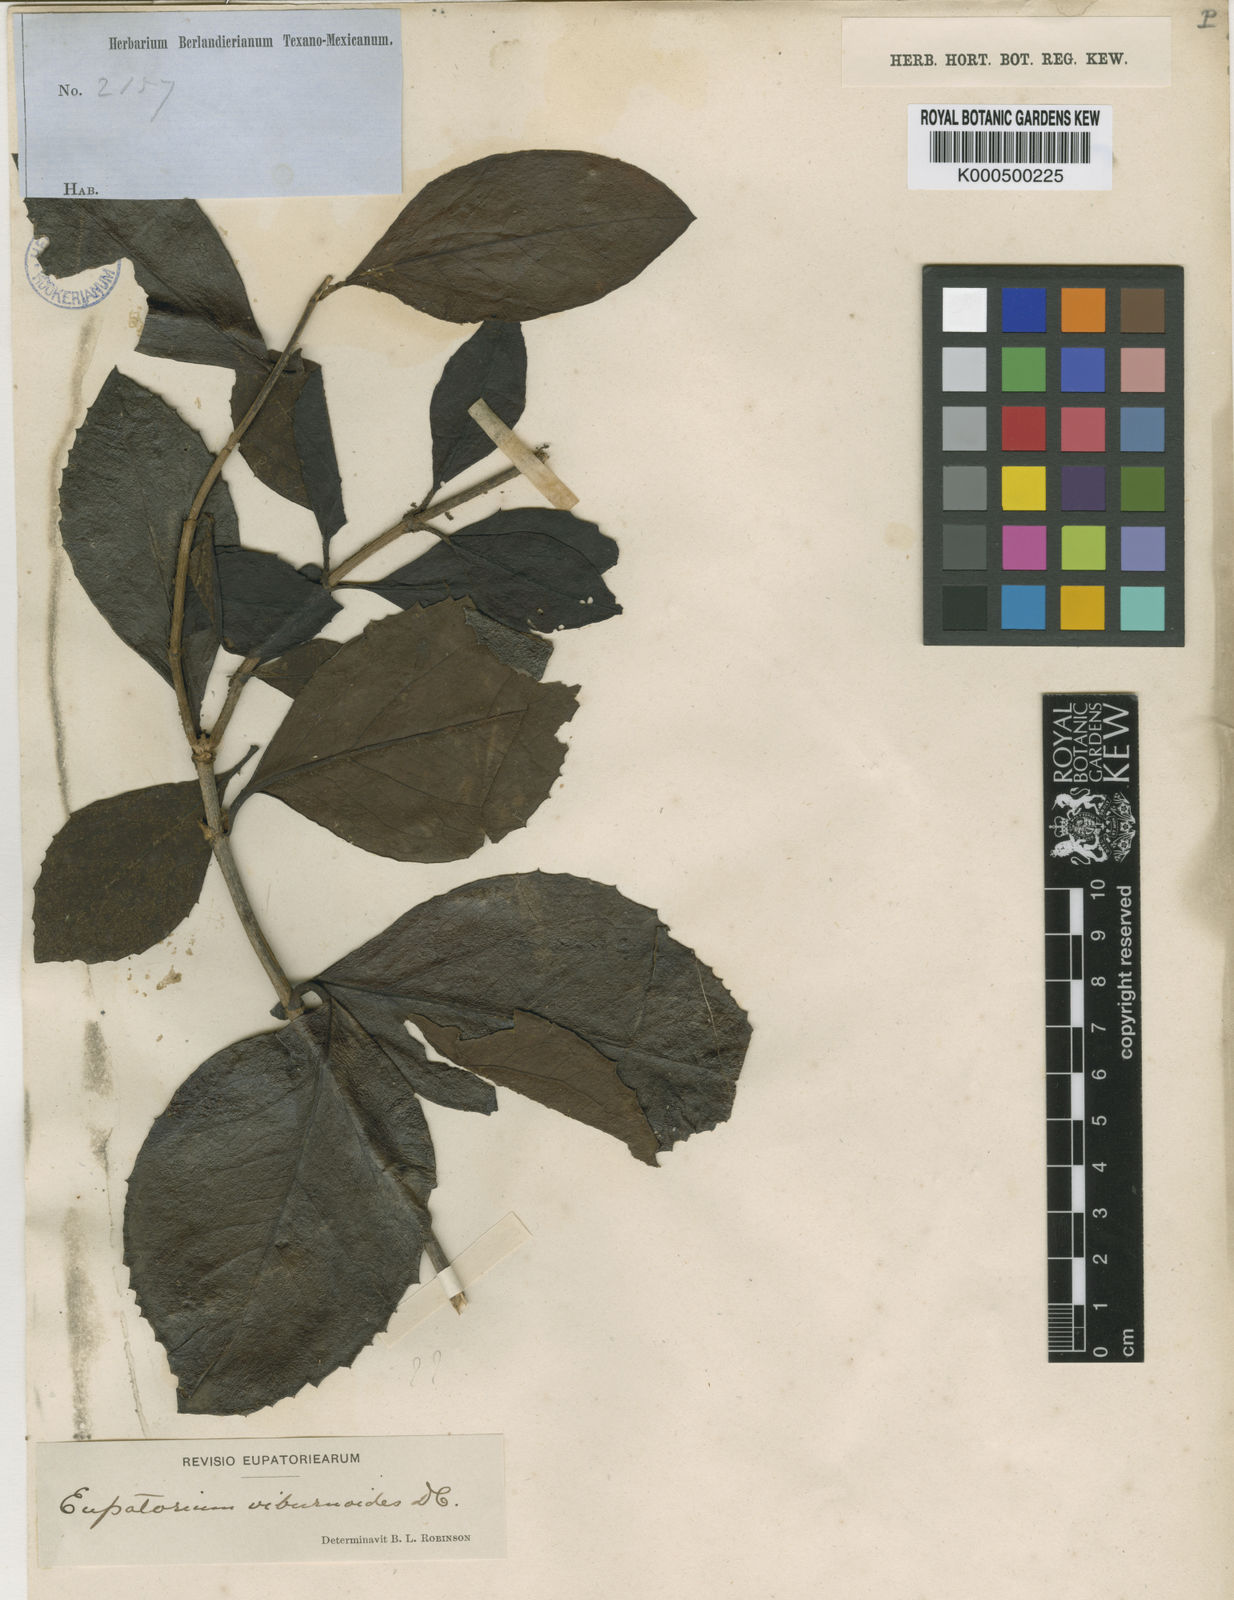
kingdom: Plantae
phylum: Tracheophyta
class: Magnoliopsida
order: Asterales
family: Asteraceae
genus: Ageratina
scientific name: Ageratina viburnoides
